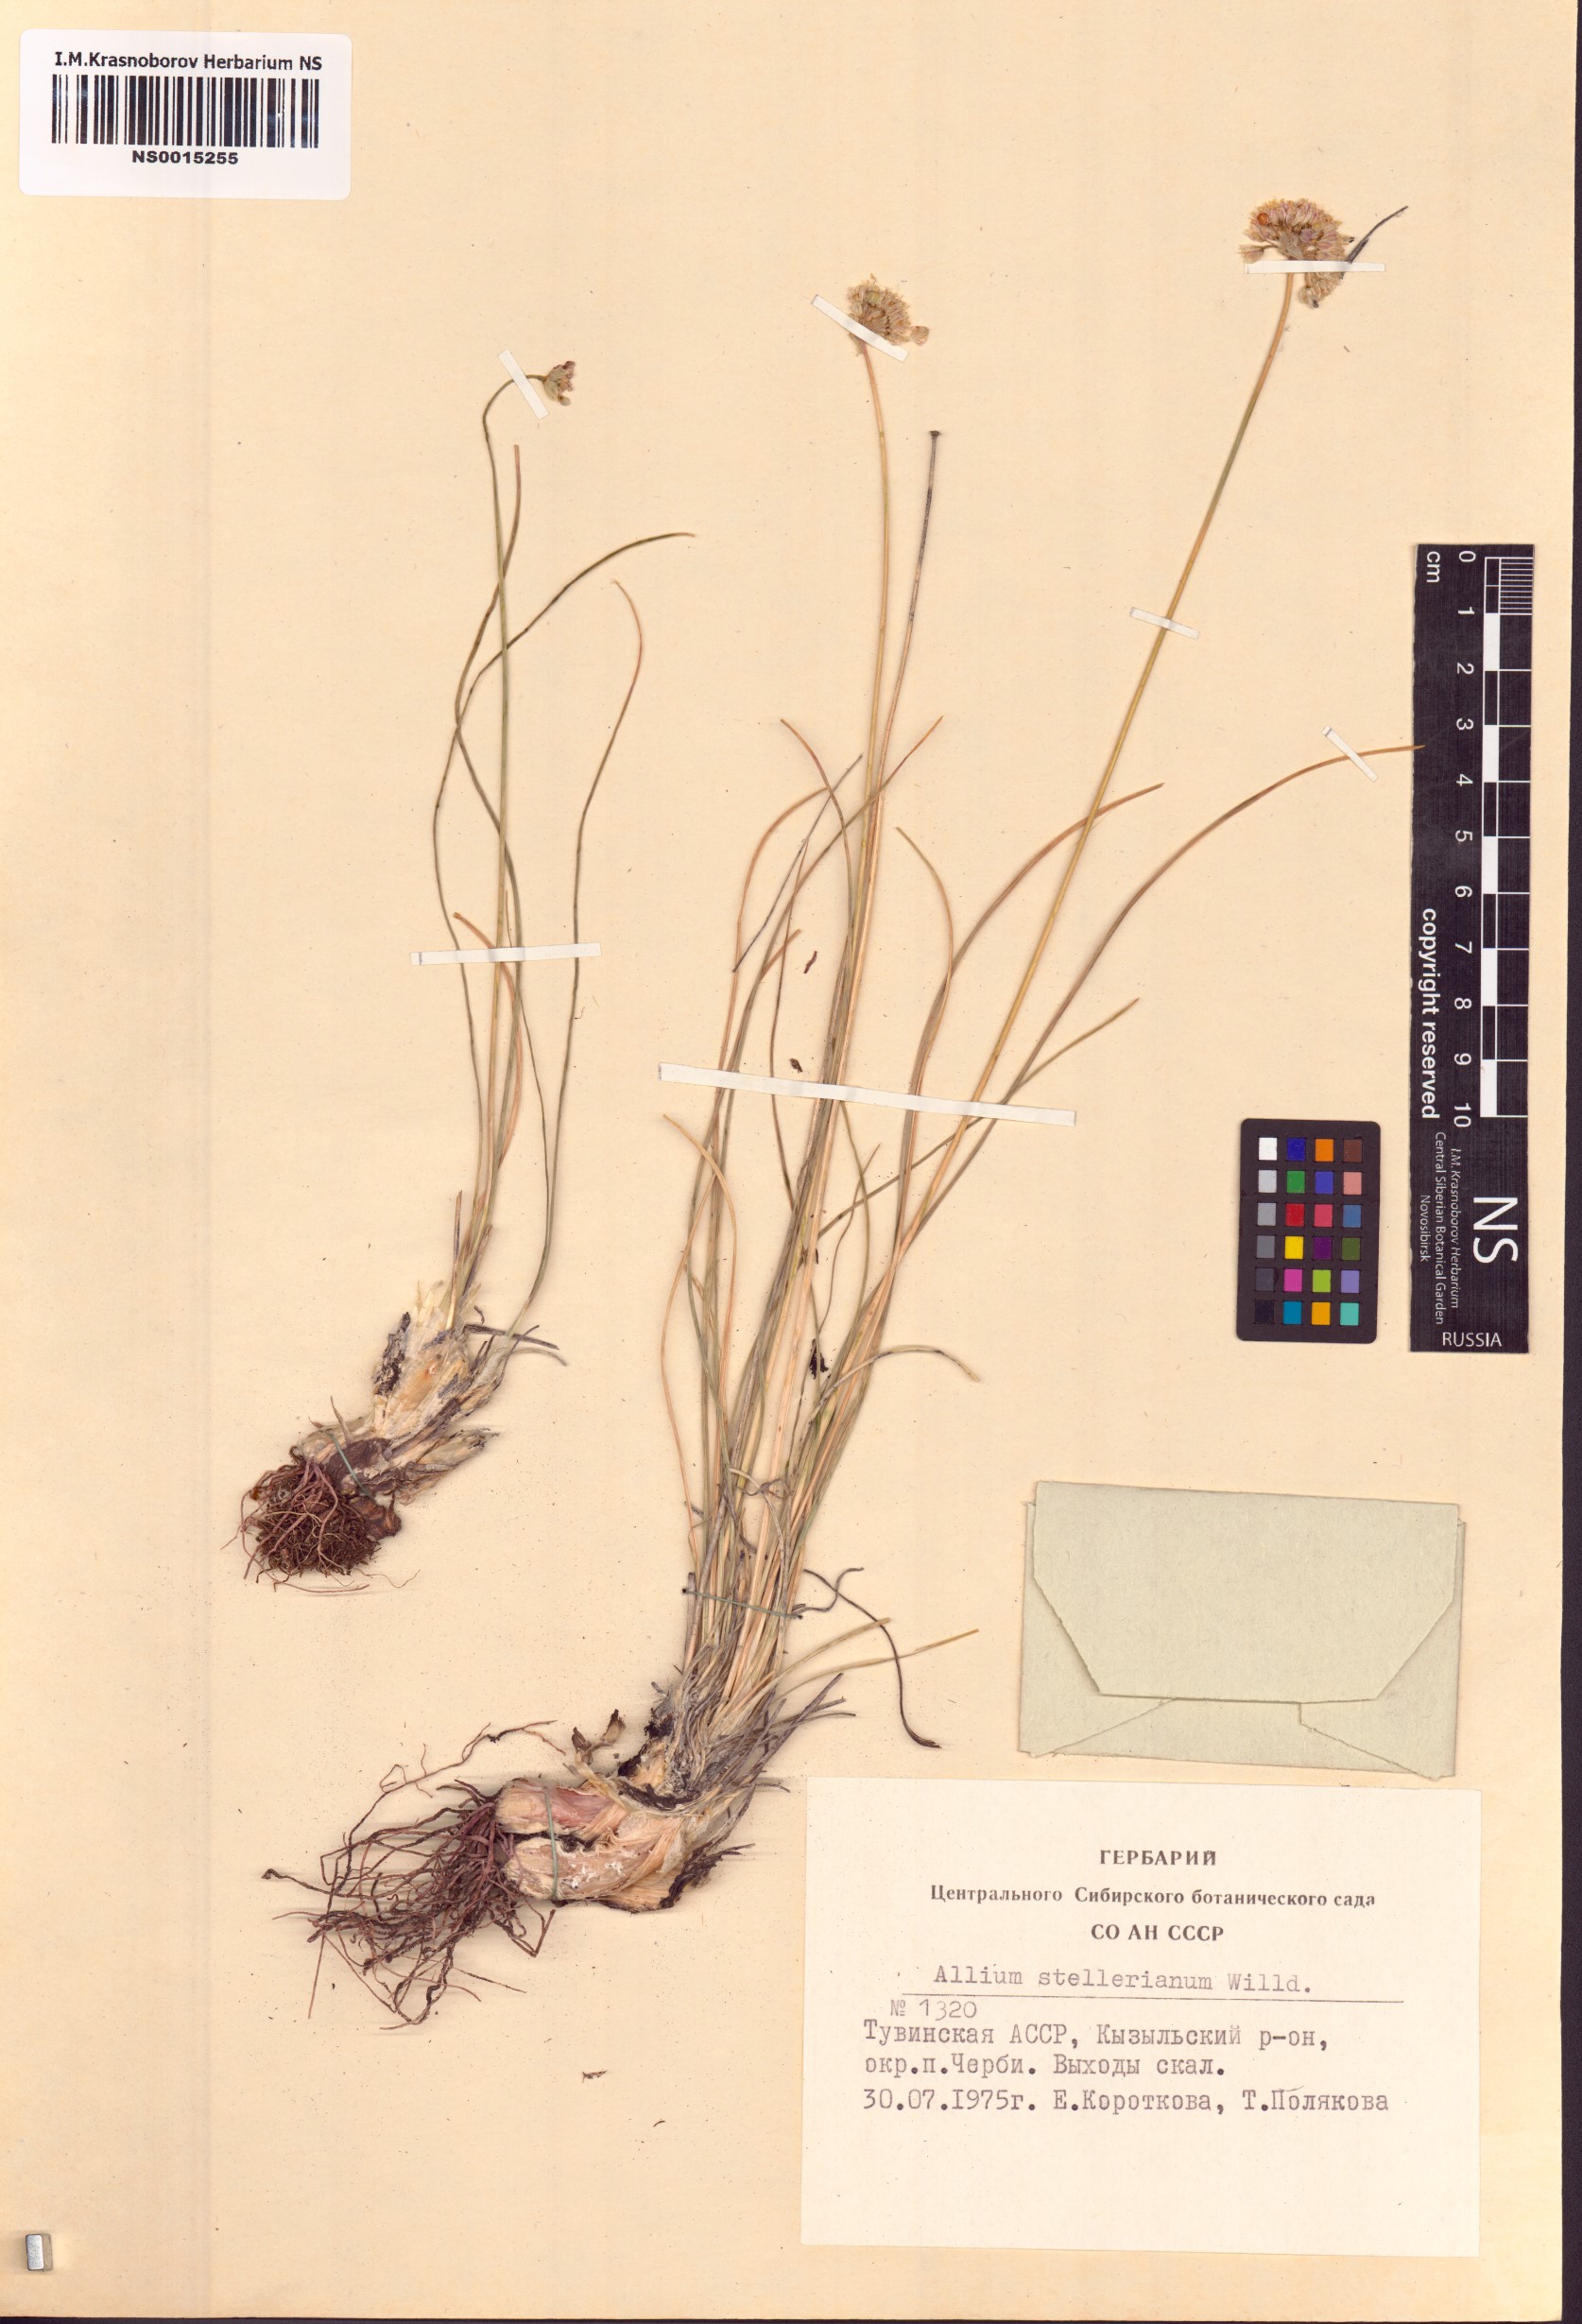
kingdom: Plantae
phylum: Tracheophyta
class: Liliopsida
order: Asparagales
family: Amaryllidaceae
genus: Allium
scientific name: Allium stellerianum
